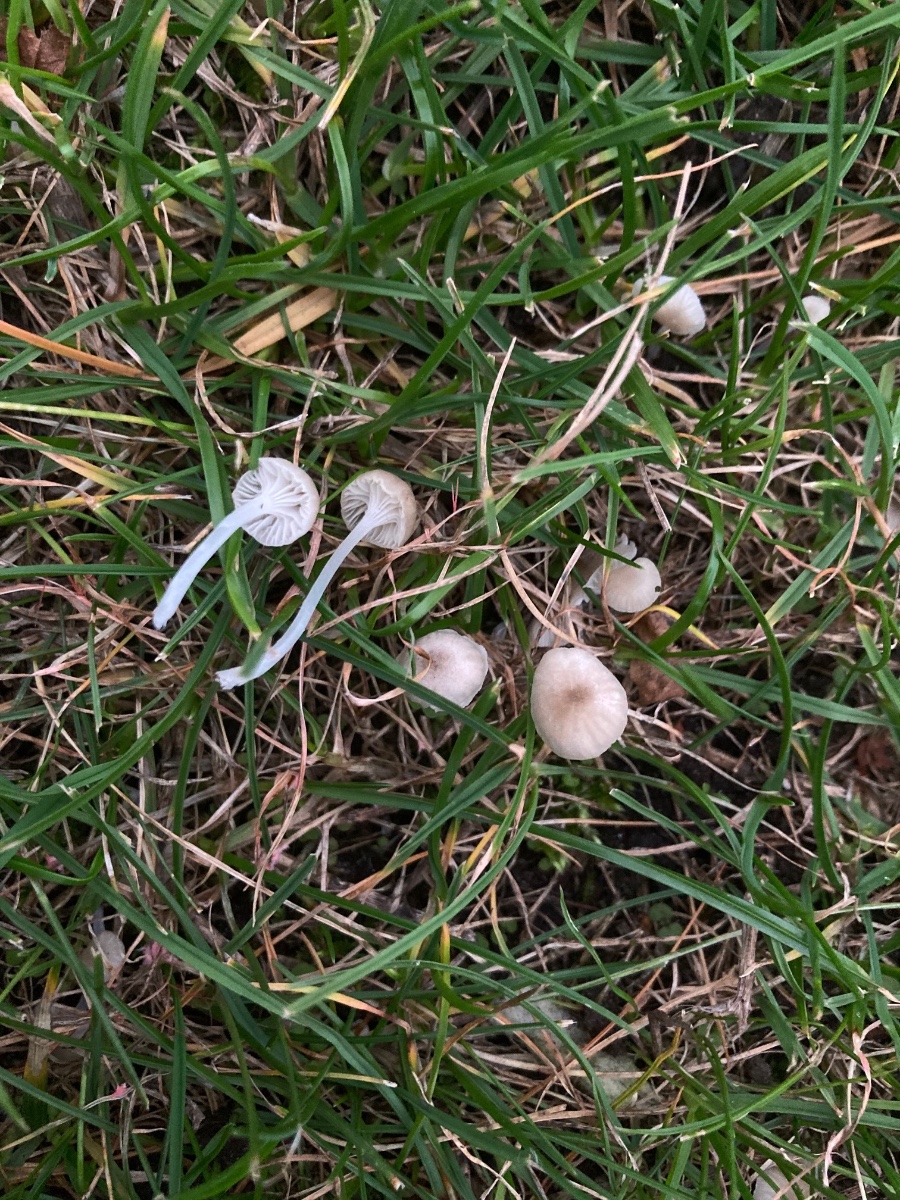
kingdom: Fungi
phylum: Basidiomycota
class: Agaricomycetes
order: Agaricales
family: Mycenaceae
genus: Hemimycena
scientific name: Hemimycena mairei
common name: voks-huesvamp
